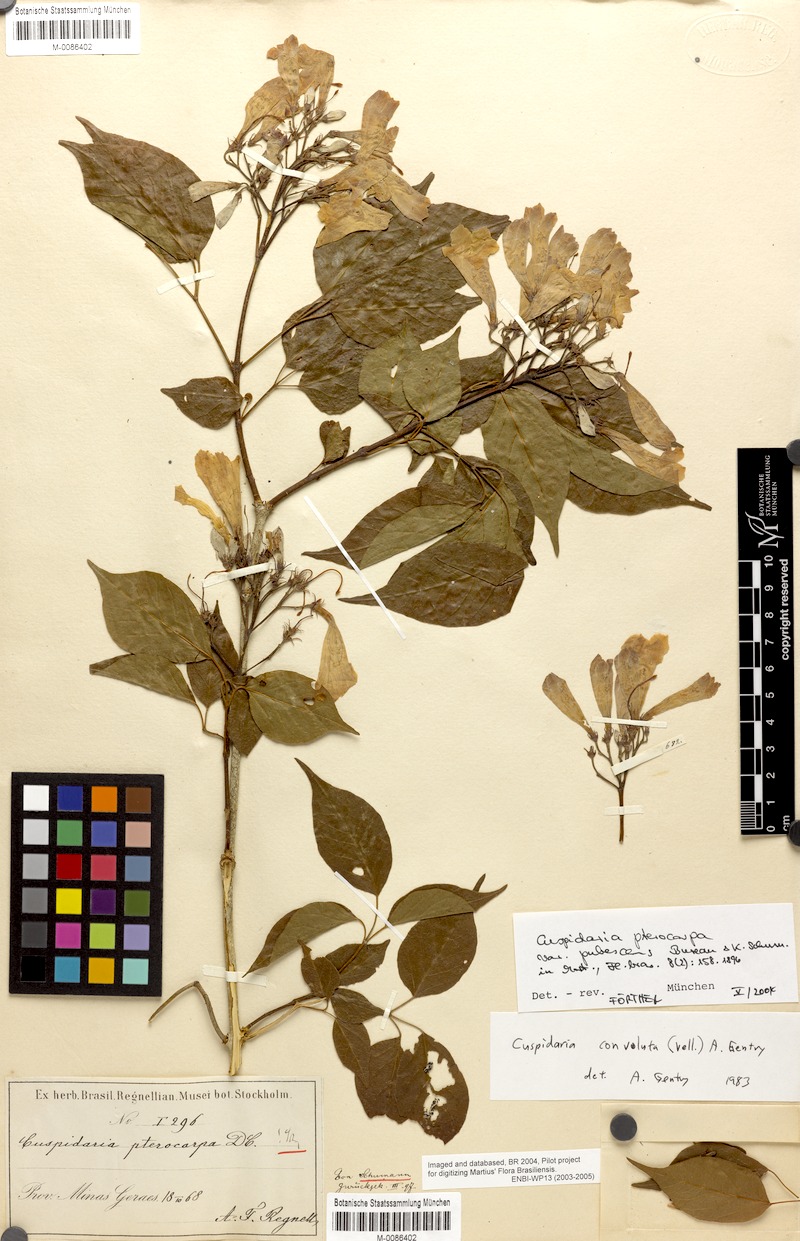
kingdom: Plantae
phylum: Tracheophyta
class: Magnoliopsida
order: Lamiales
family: Bignoniaceae
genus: Cuspidaria
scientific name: Cuspidaria convoluta
